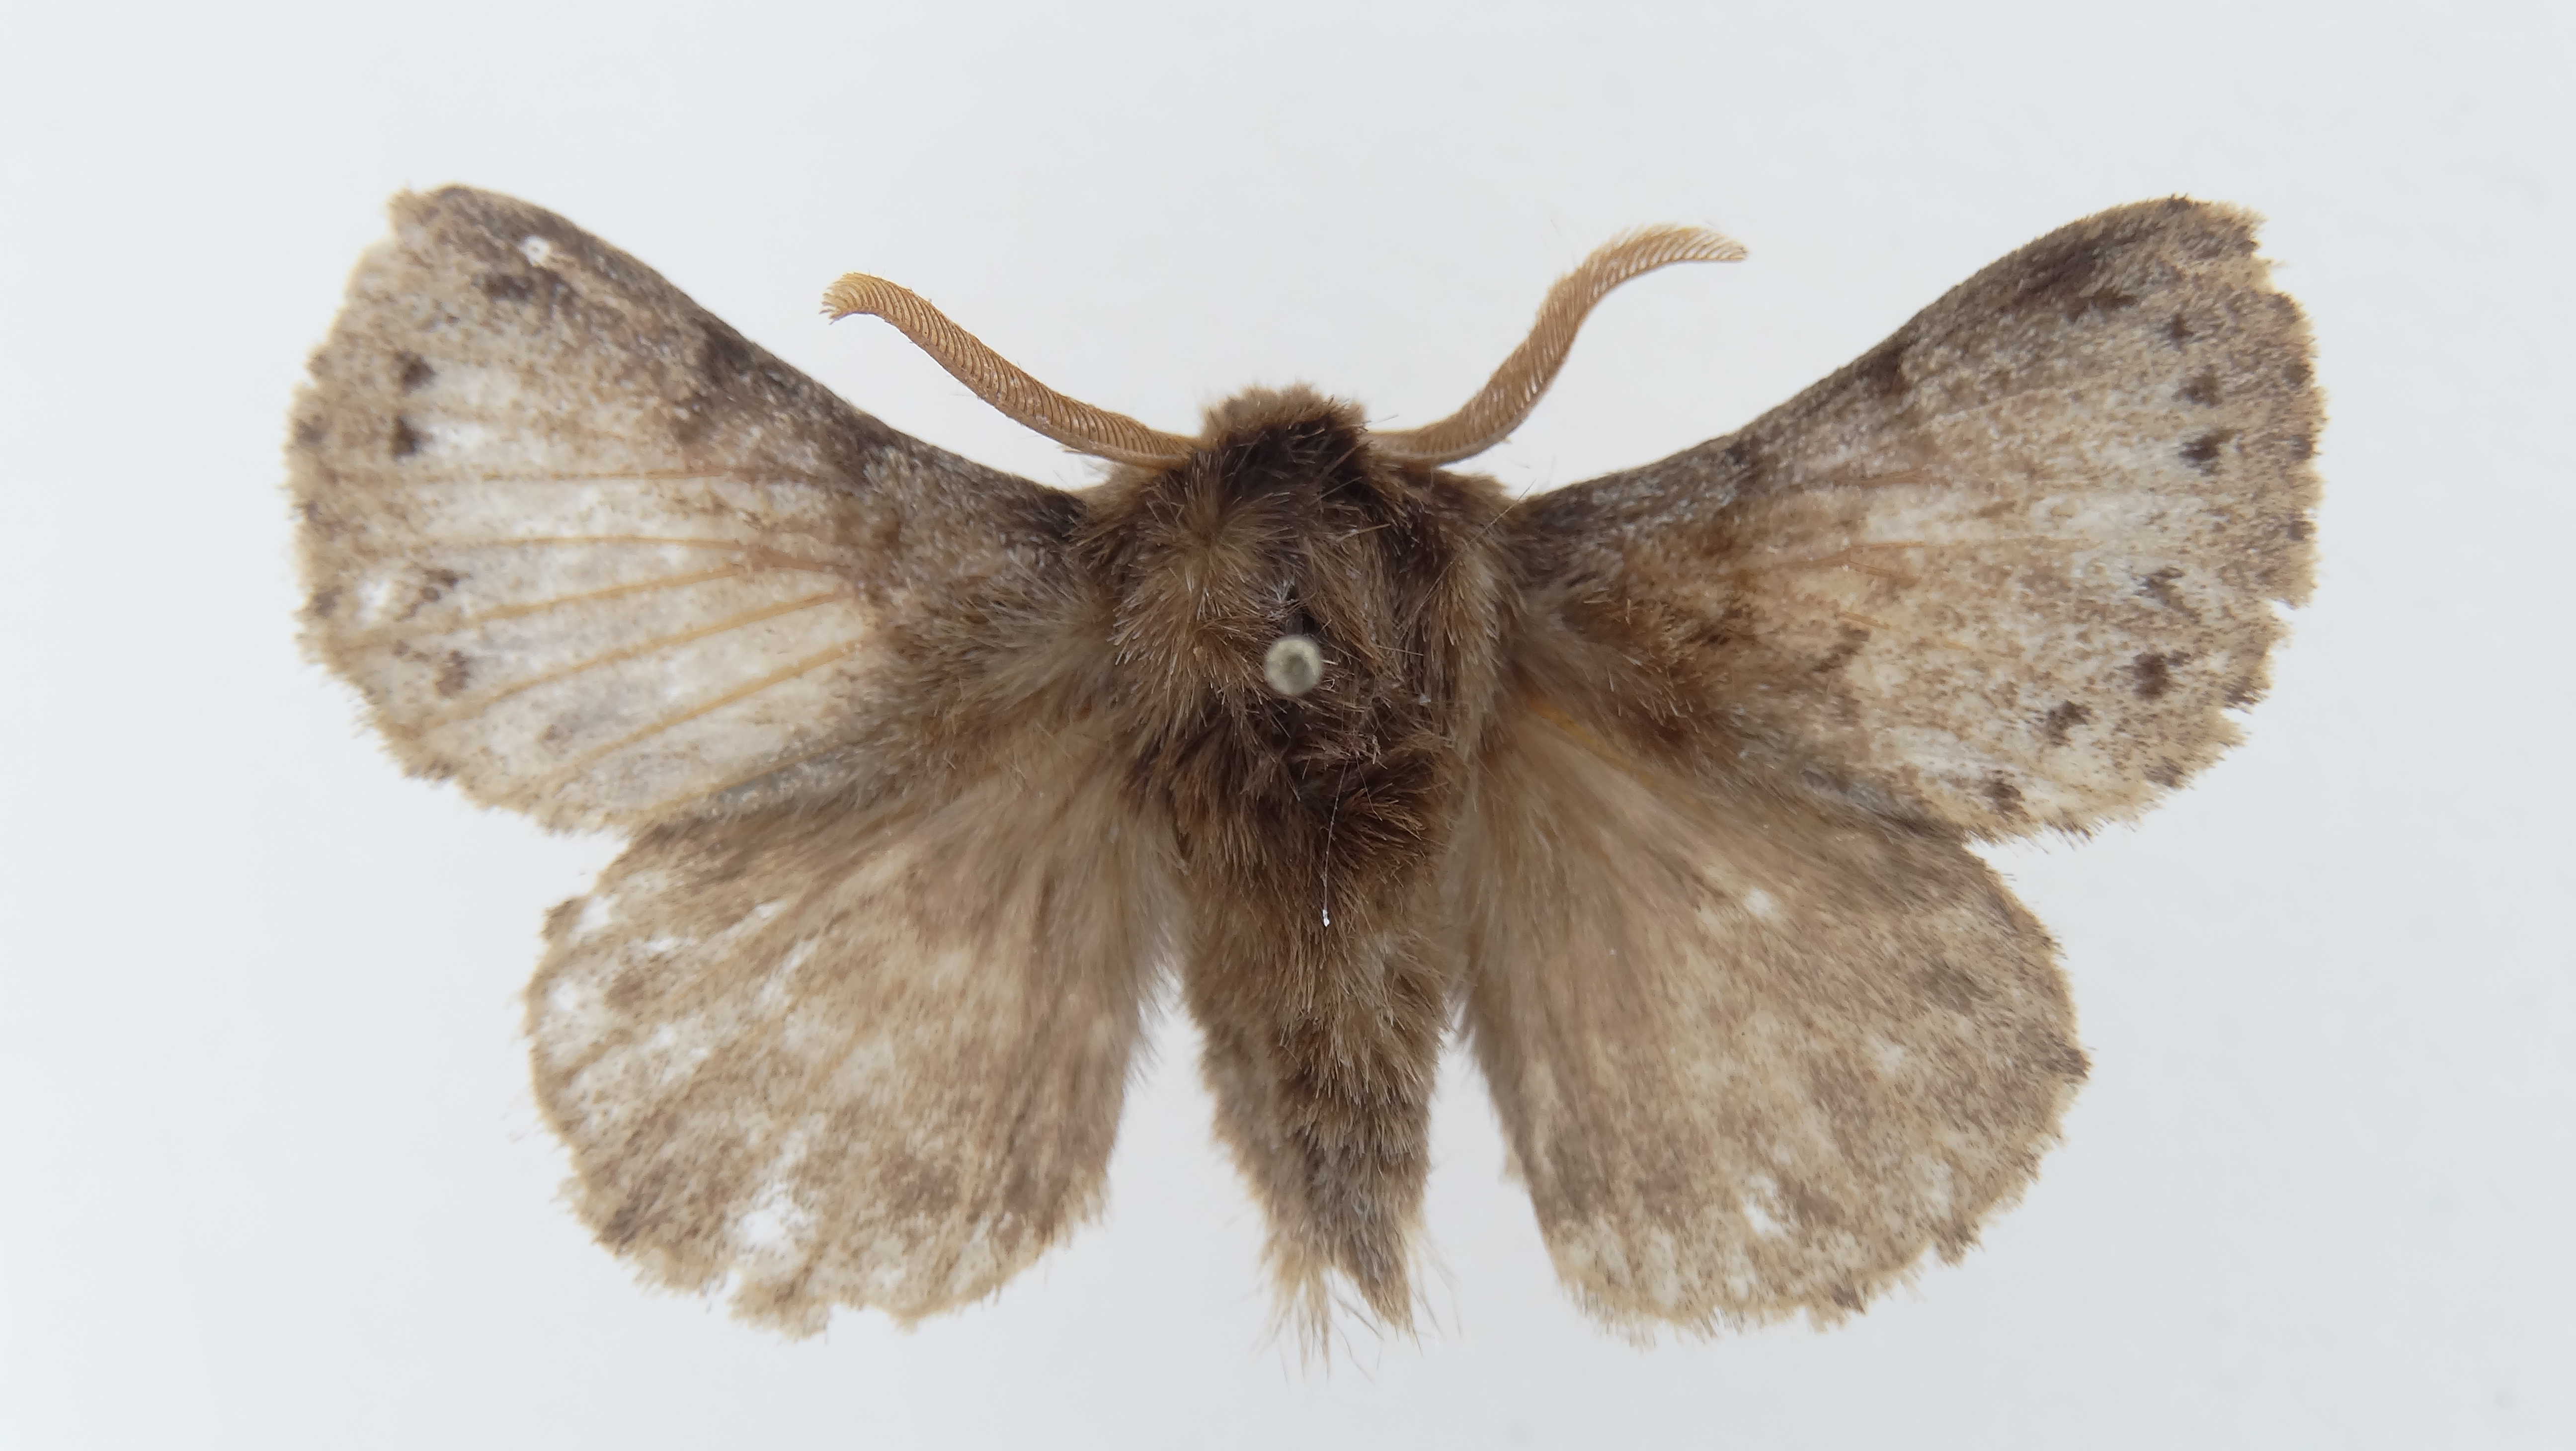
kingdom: Animalia
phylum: Arthropoda
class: Insecta
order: Lepidoptera
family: Lasiocampidae
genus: Macromphalia
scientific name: Macromphalia spadix
